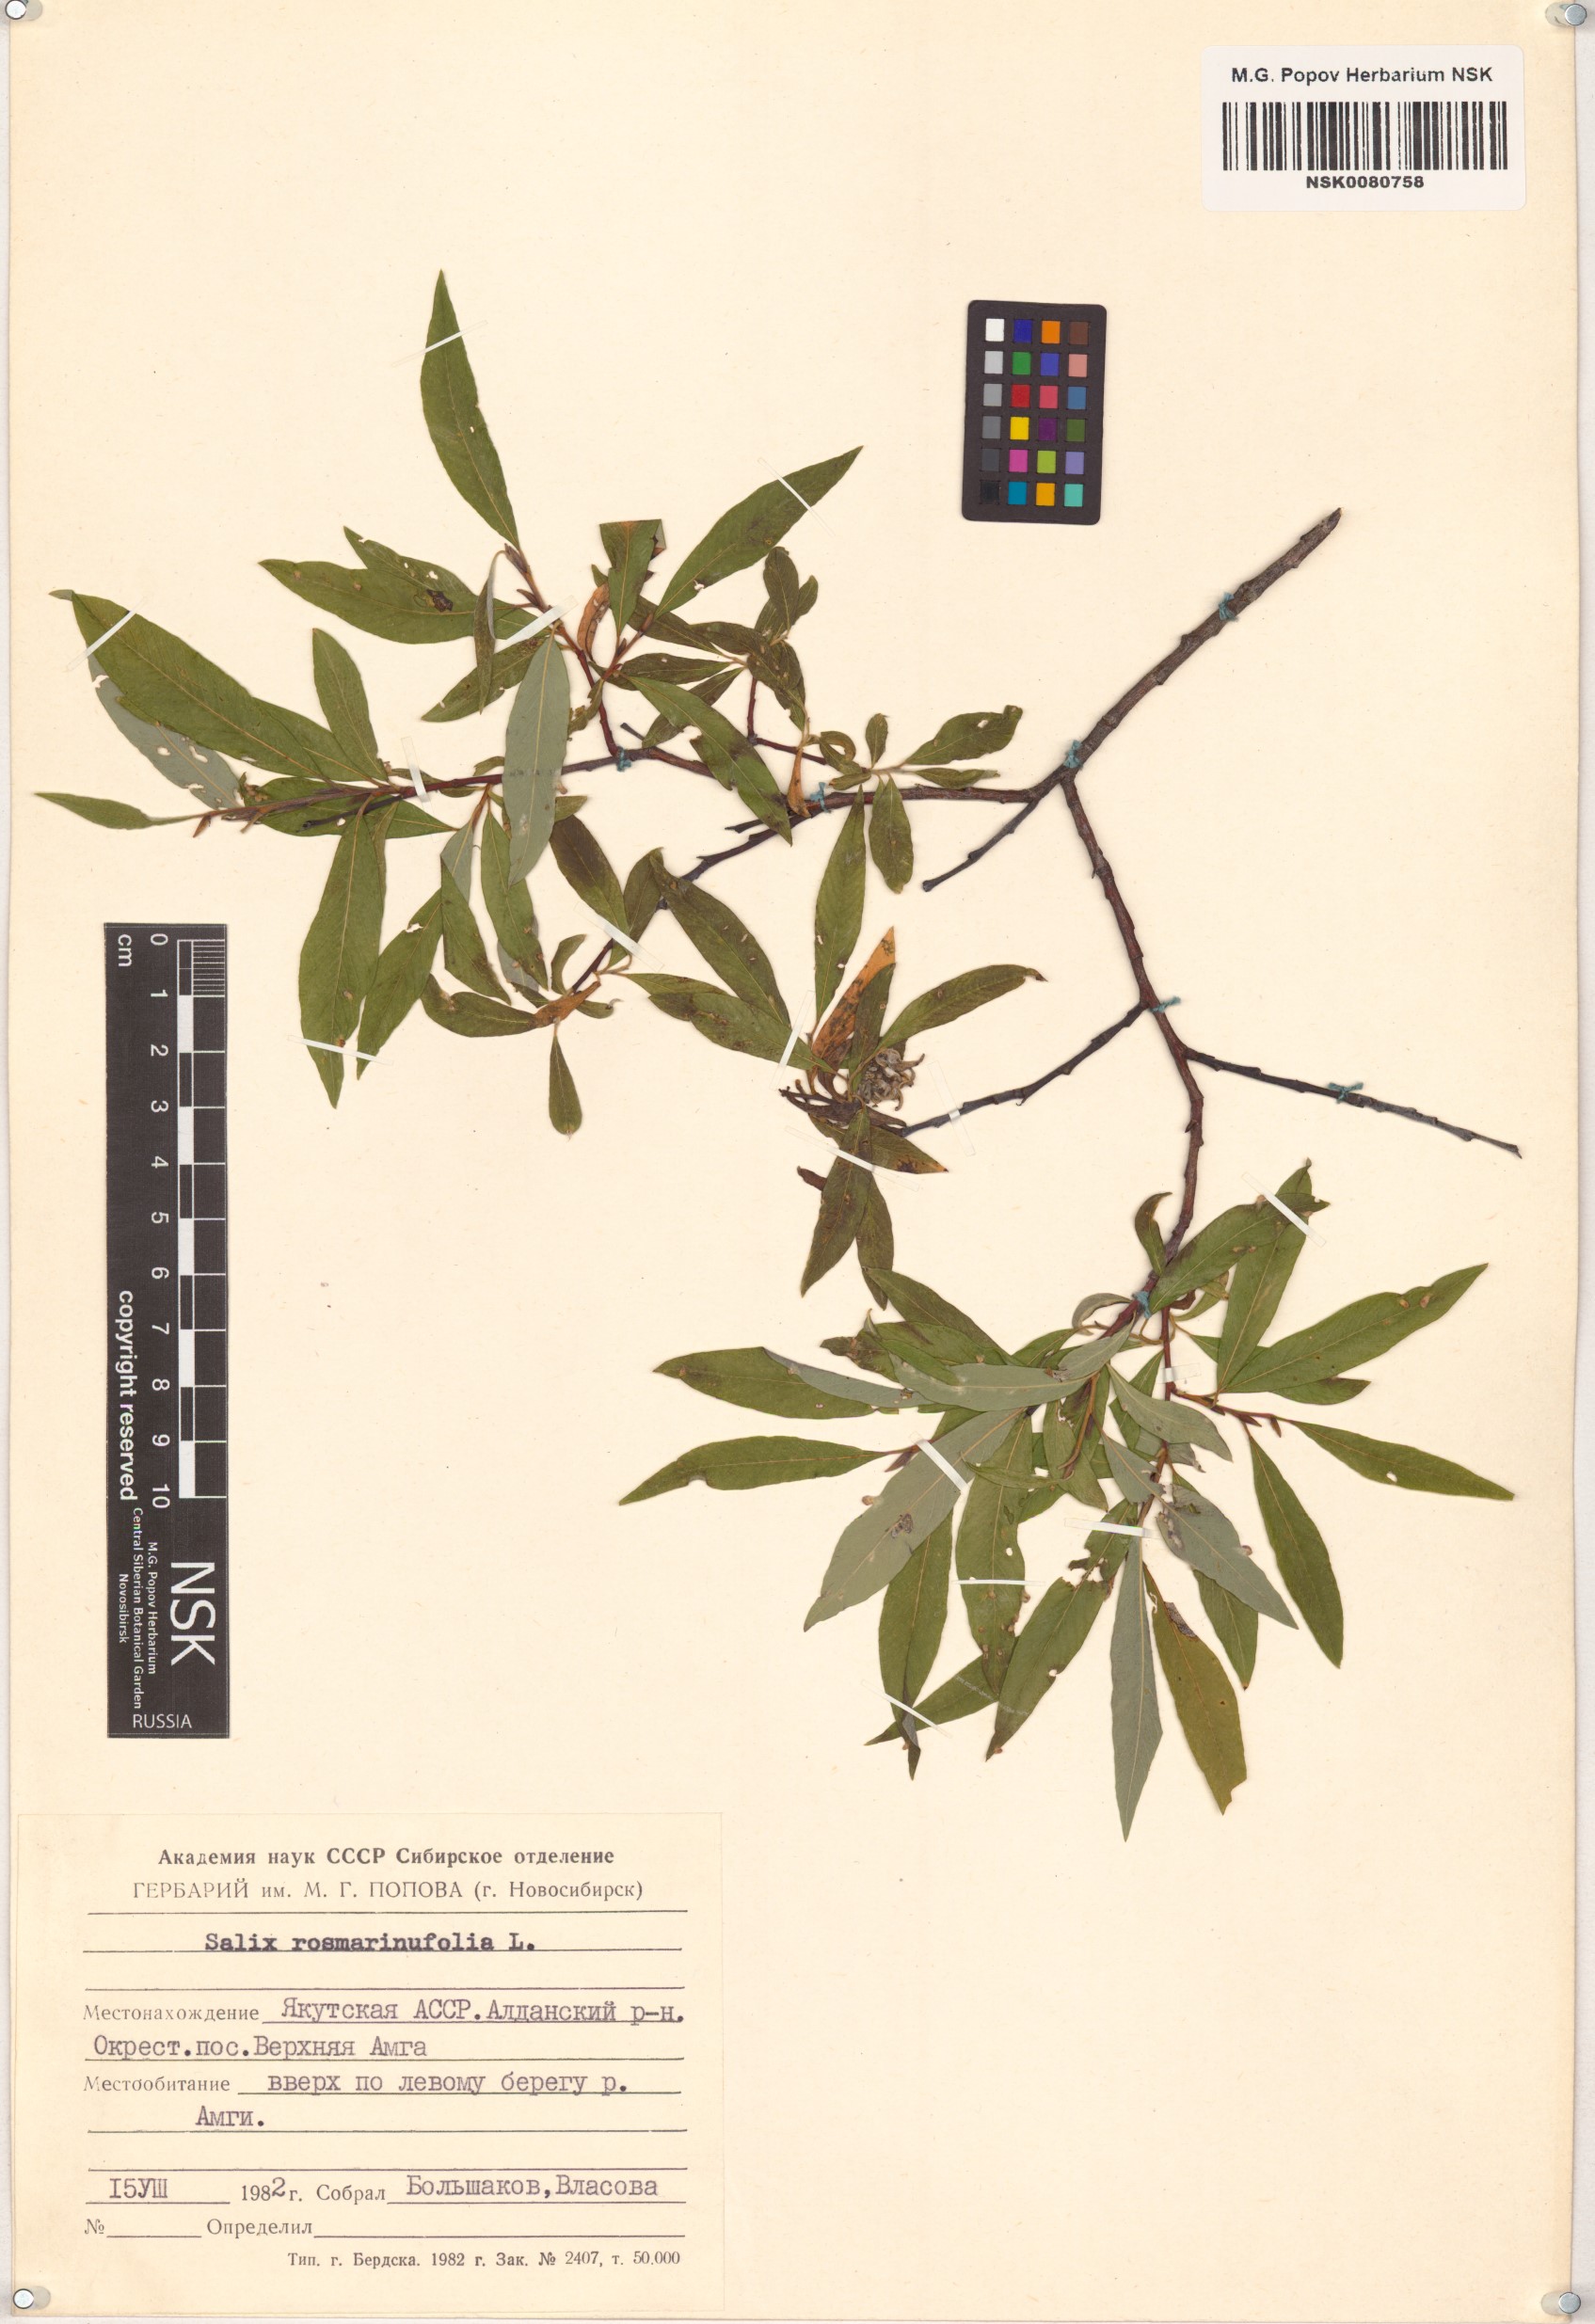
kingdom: Plantae
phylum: Tracheophyta
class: Magnoliopsida
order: Malpighiales
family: Salicaceae
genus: Salix
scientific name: Salix rosmarinifolia
